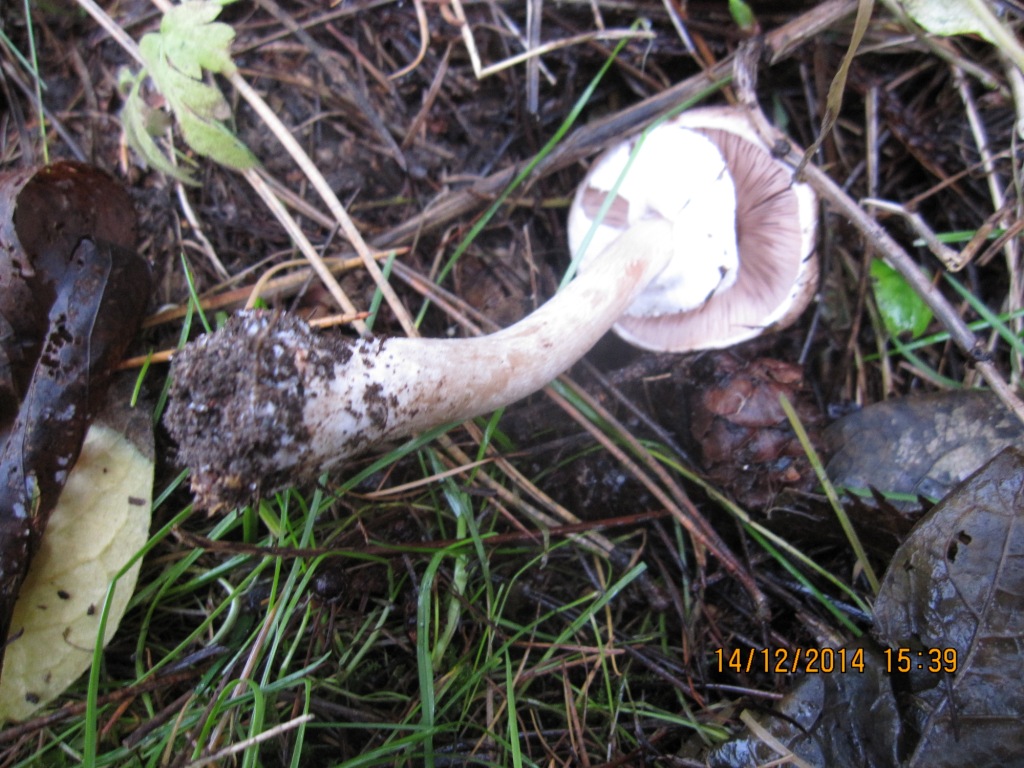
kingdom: Fungi
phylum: Basidiomycota
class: Agaricomycetes
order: Agaricales
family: Agaricaceae
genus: Agaricus
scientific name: Agaricus impudicus
